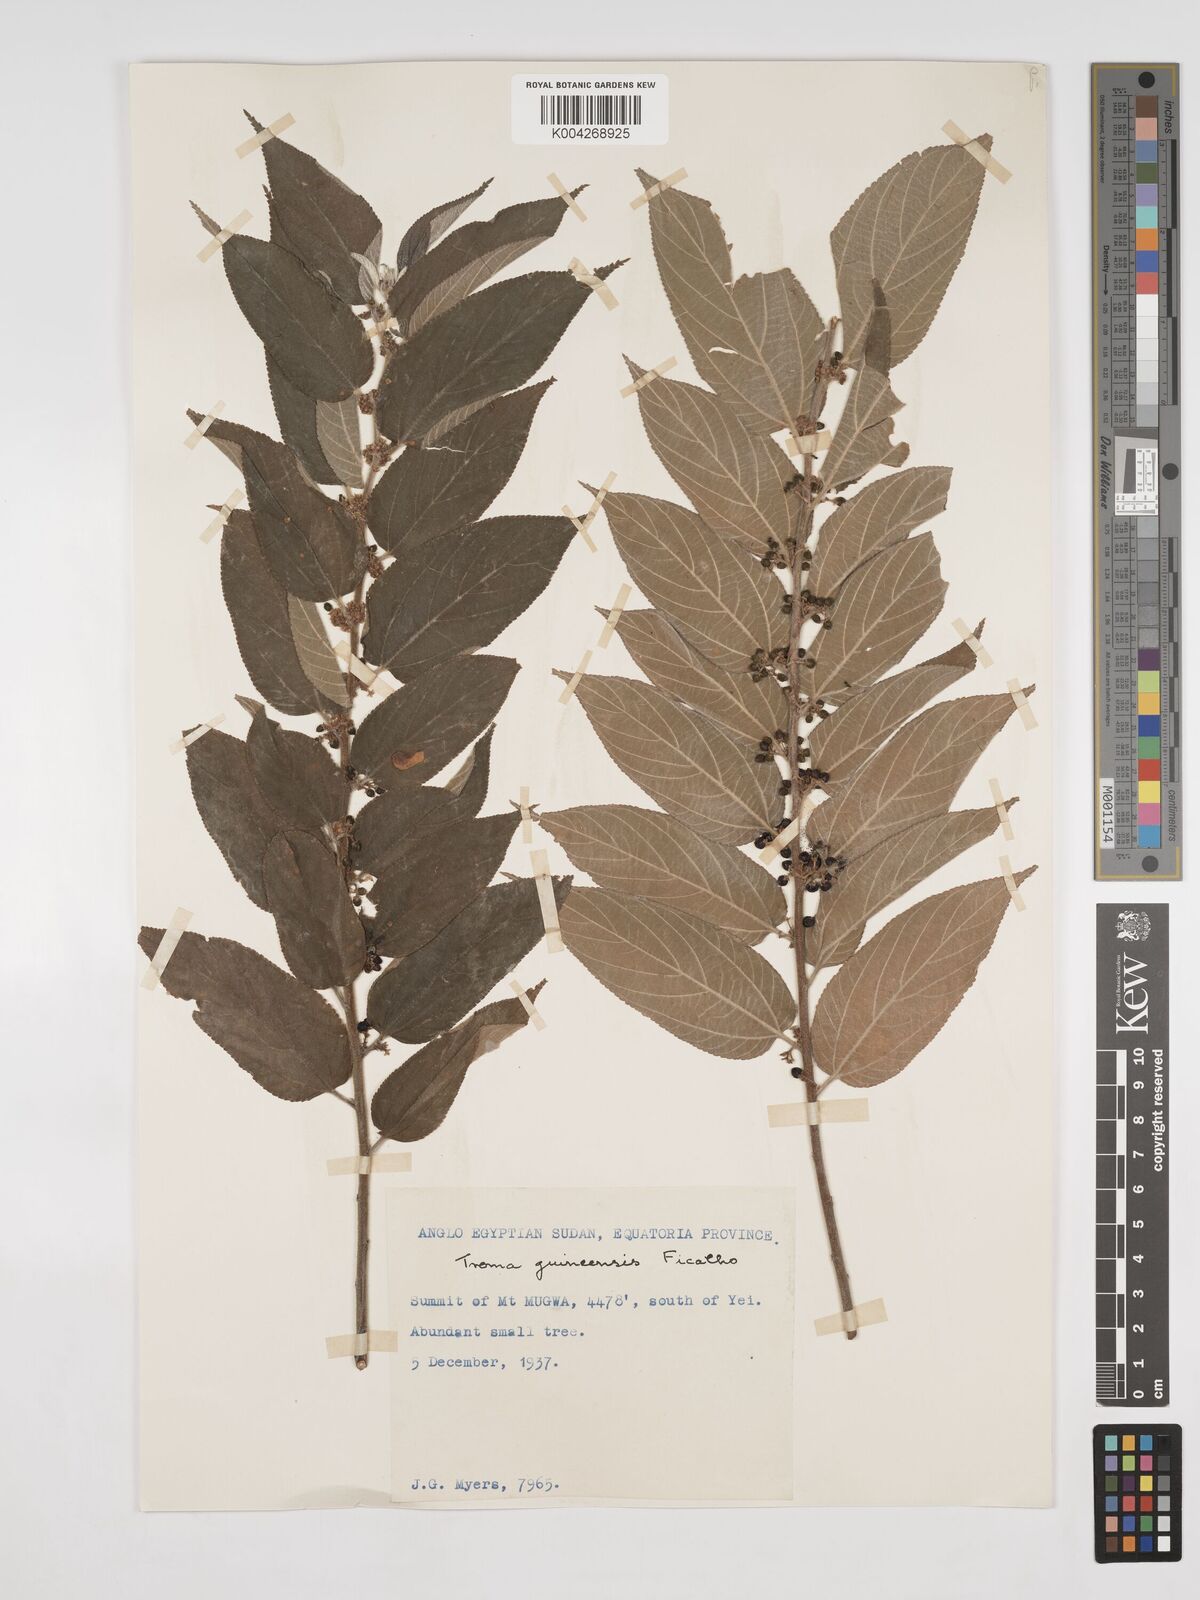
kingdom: Plantae
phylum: Tracheophyta
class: Magnoliopsida
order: Rosales
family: Cannabaceae
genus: Trema
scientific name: Trema orientale
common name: Indian charcoal tree
